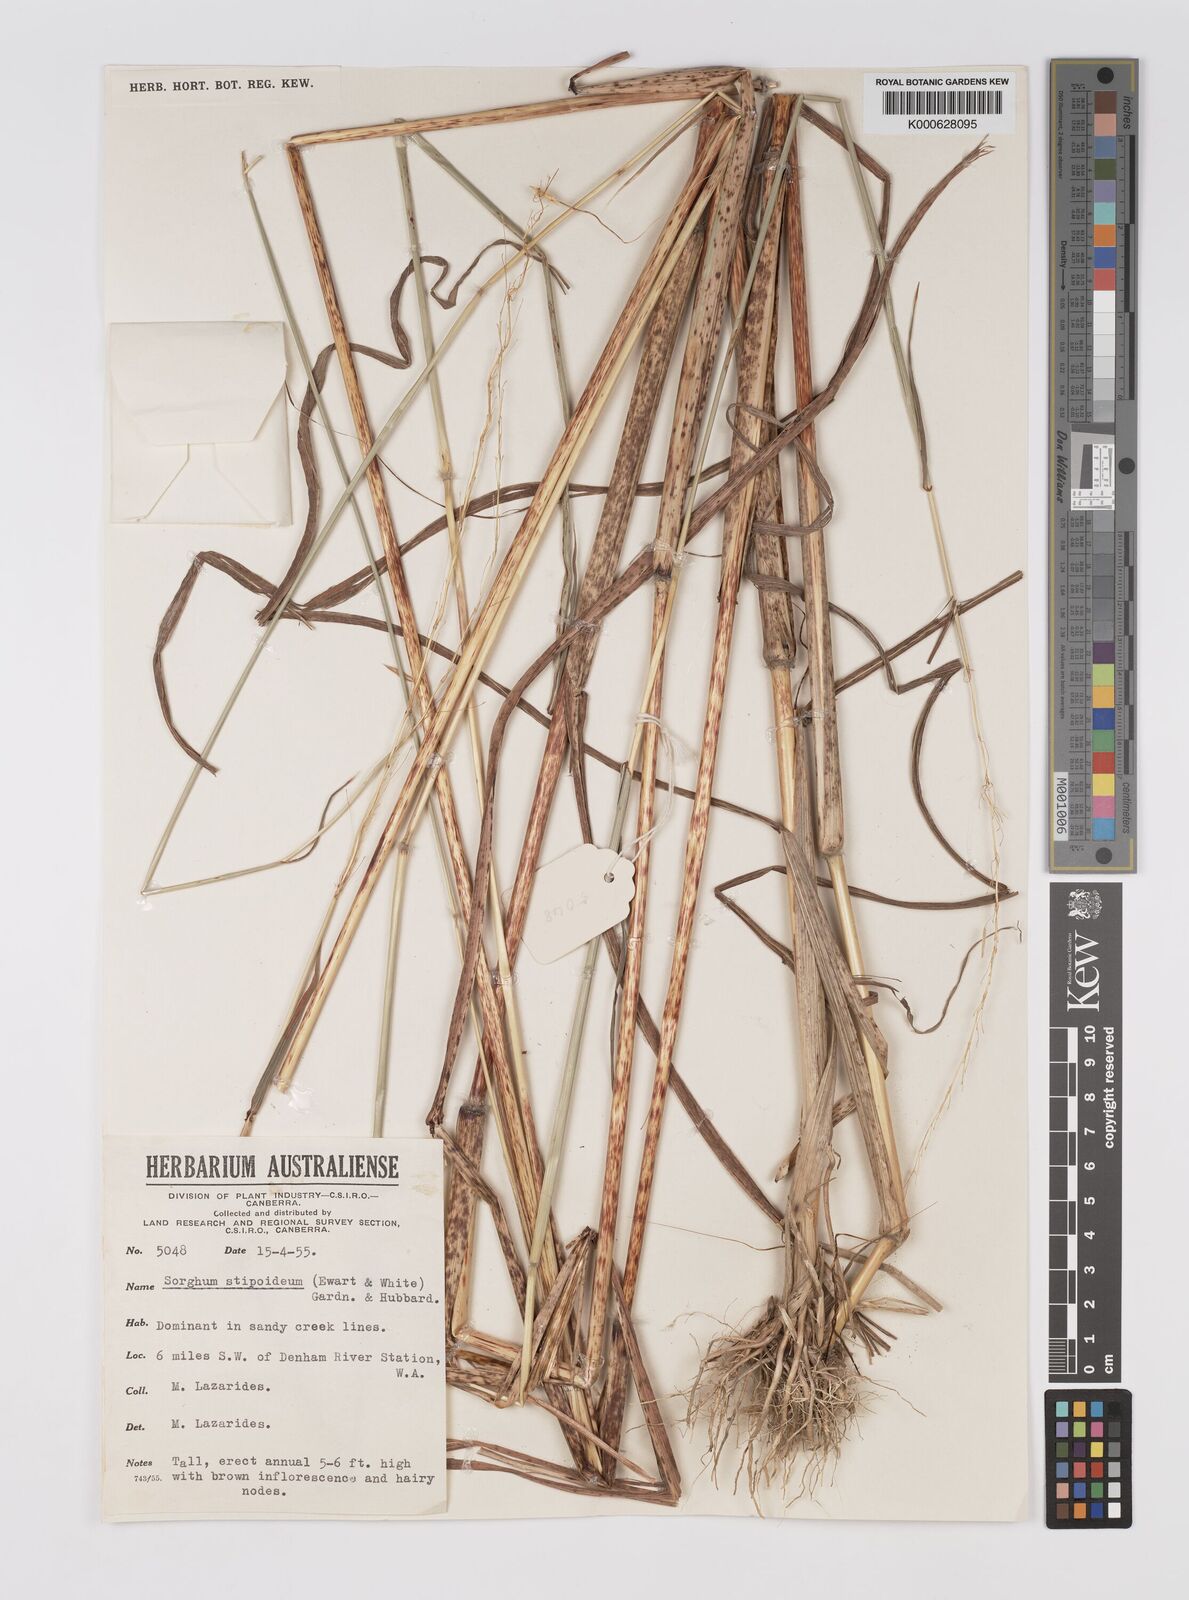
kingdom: Plantae
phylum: Tracheophyta
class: Liliopsida
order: Poales
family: Poaceae
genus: Sarga
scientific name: Sarga stipoidea
